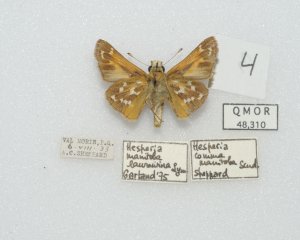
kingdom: Animalia
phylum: Arthropoda
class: Insecta
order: Lepidoptera
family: Hesperiidae
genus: Hesperia
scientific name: Hesperia comma
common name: Common Branded Skipper
